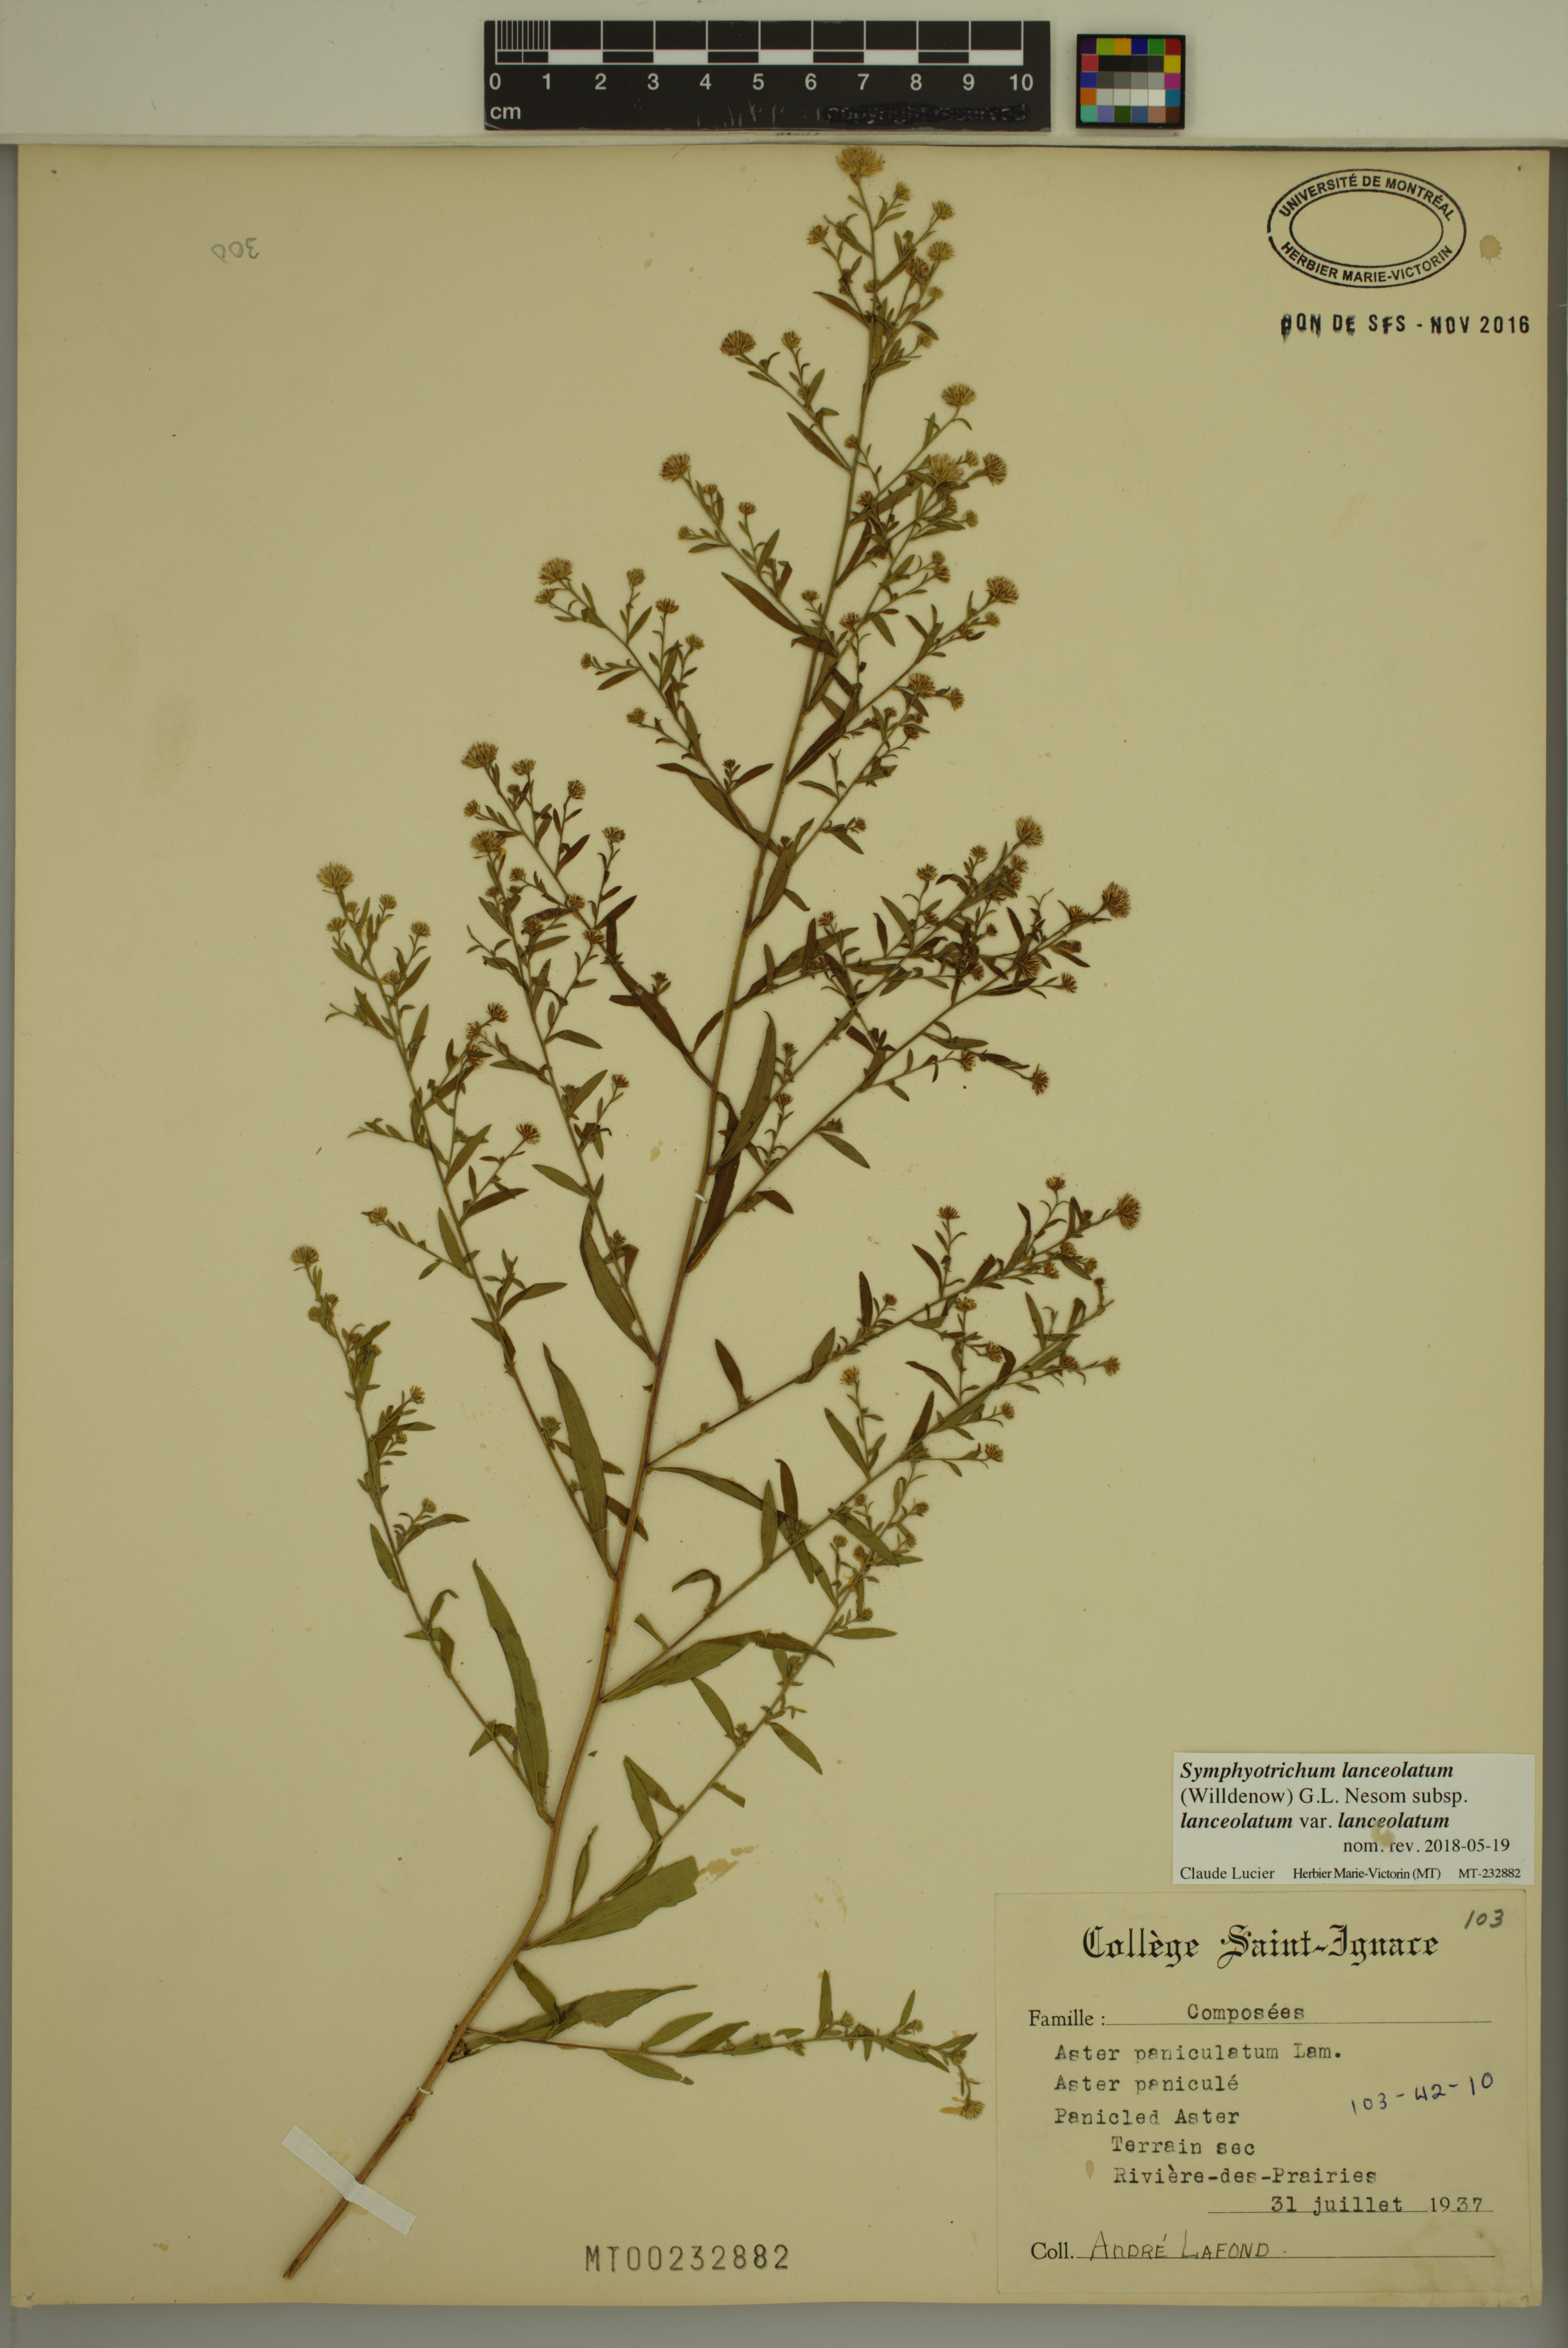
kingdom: Plantae
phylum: Tracheophyta
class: Magnoliopsida
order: Asterales
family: Asteraceae
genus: Symphyotrichum
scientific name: Symphyotrichum lanceolatum
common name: Panicled aster
